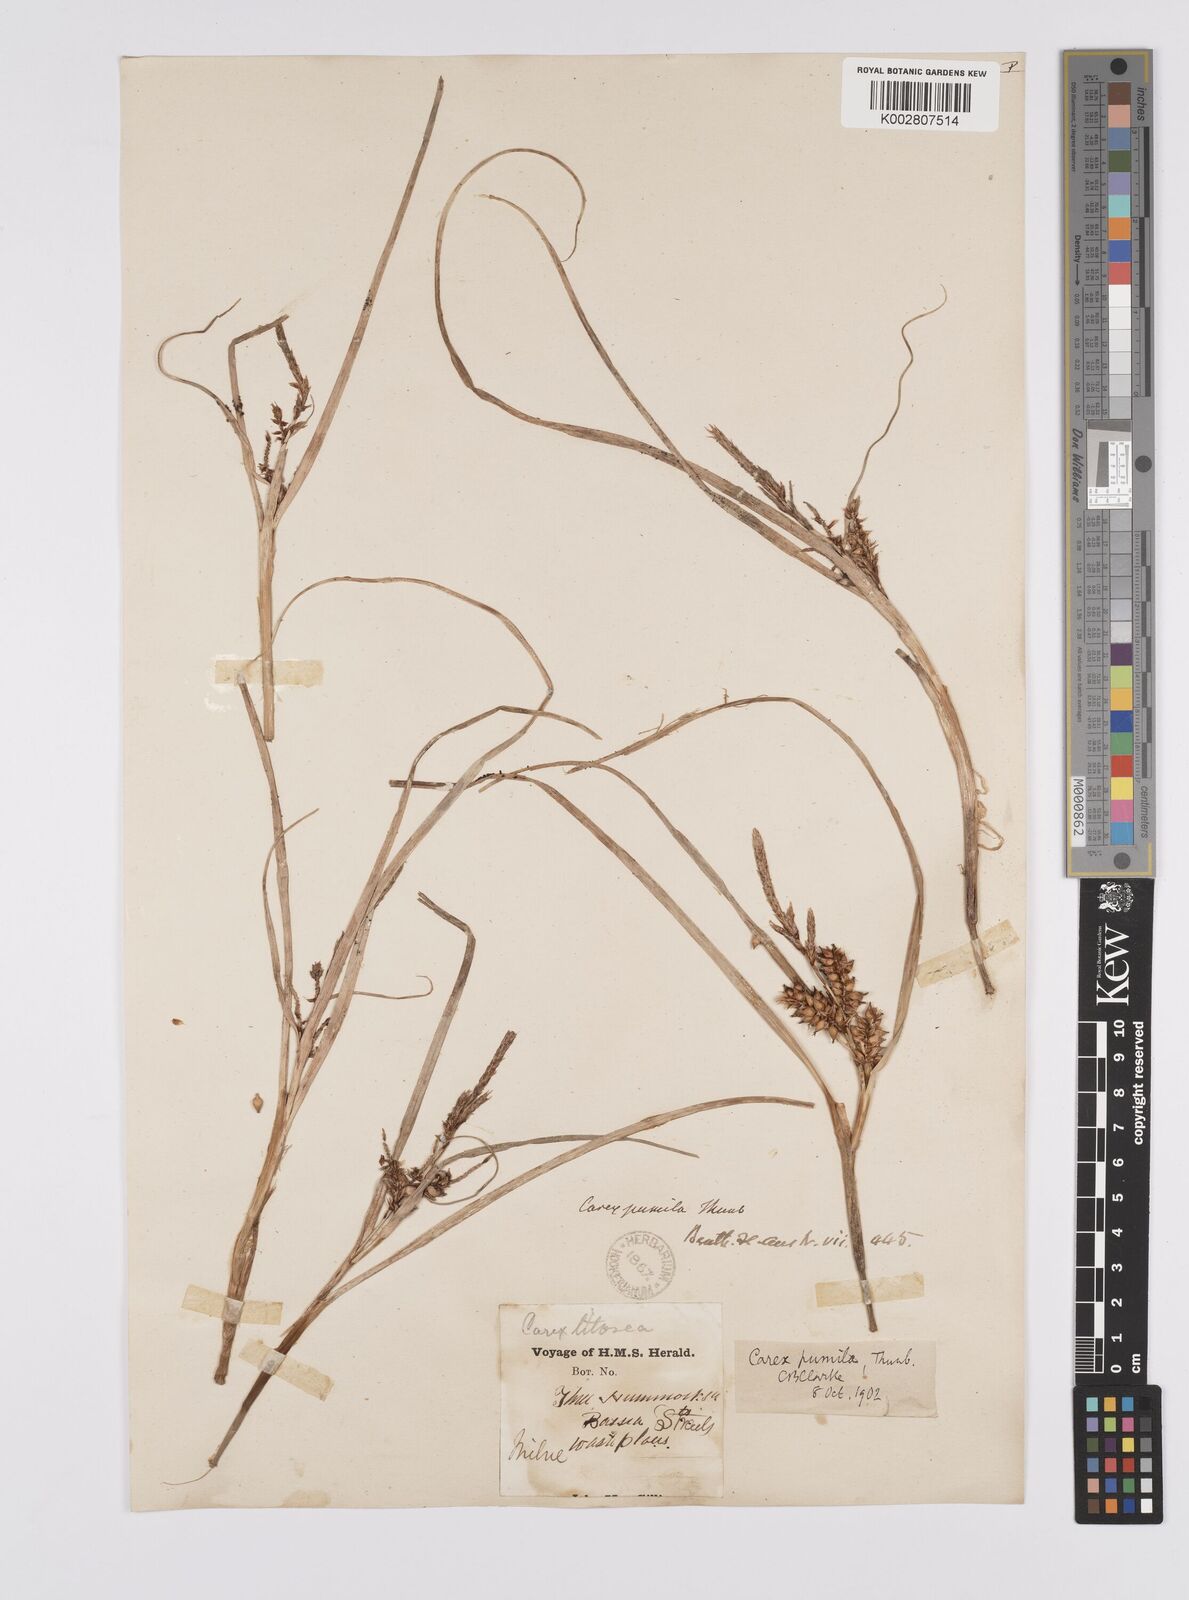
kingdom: Plantae
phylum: Tracheophyta
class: Liliopsida
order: Poales
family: Cyperaceae
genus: Carex
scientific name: Carex pumila
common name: Dwarf sedge
